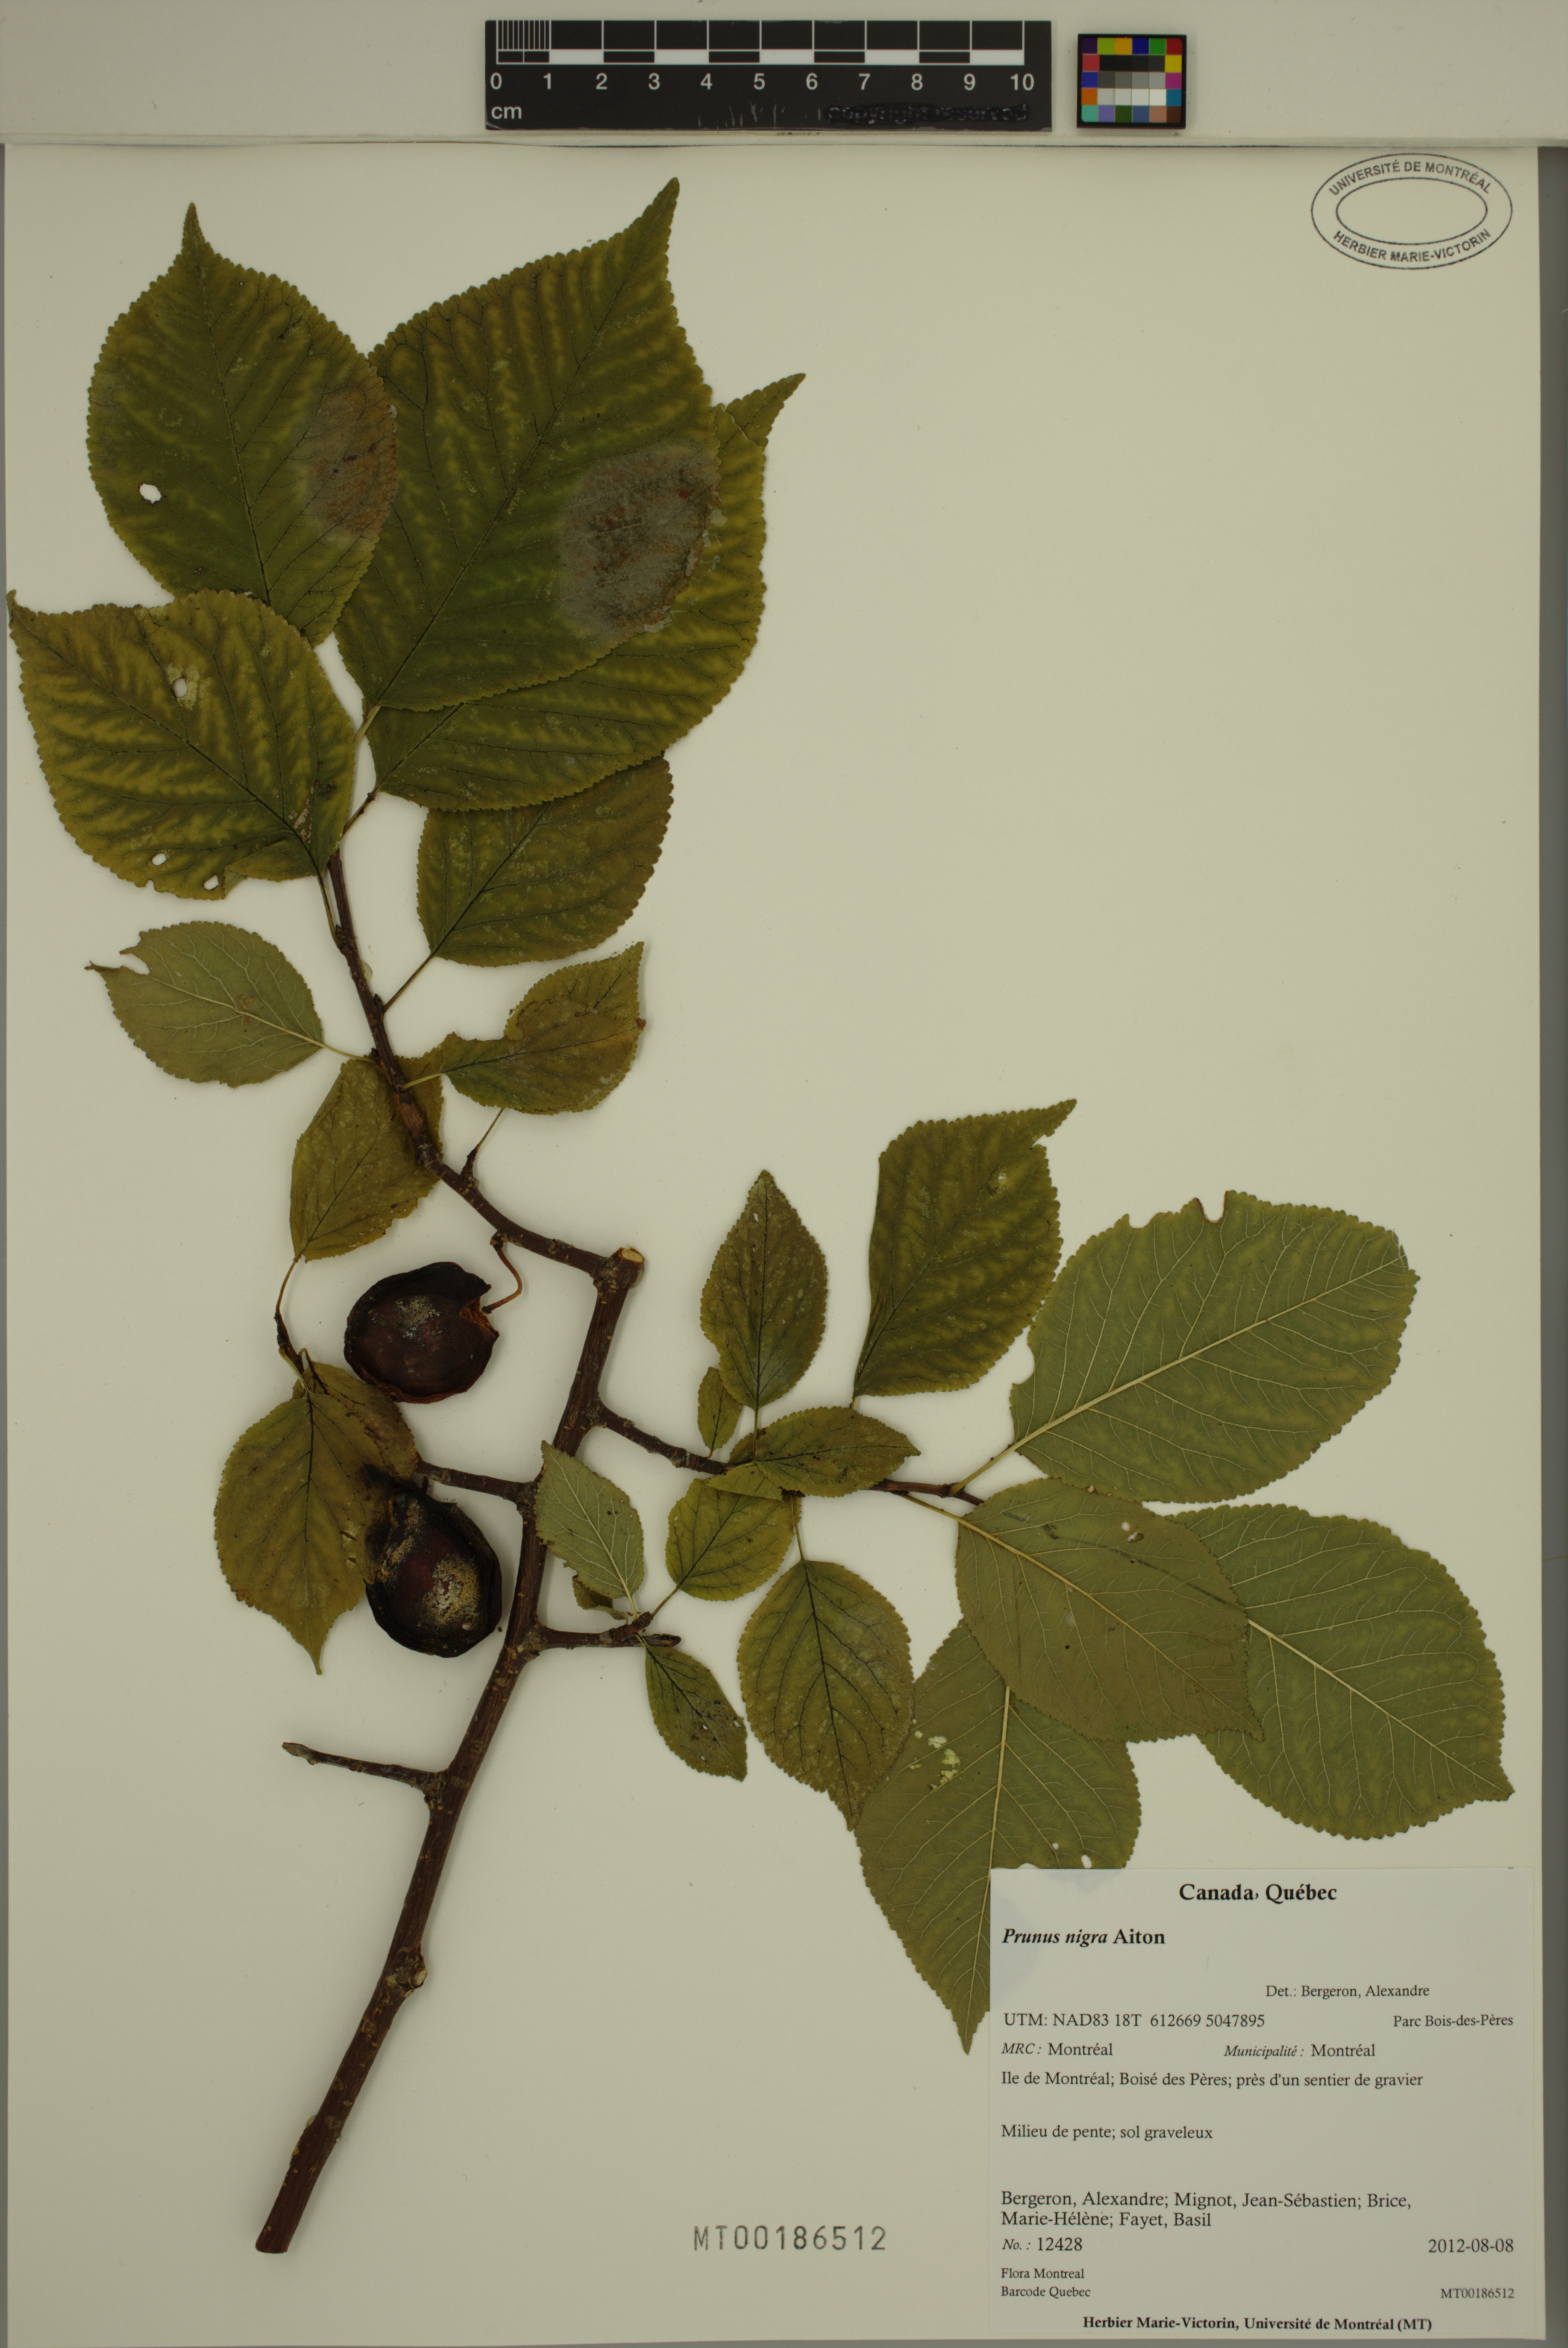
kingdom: Plantae
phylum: Tracheophyta
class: Magnoliopsida
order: Rosales
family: Rosaceae
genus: Prunus
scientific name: Prunus nigra
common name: Black plum
